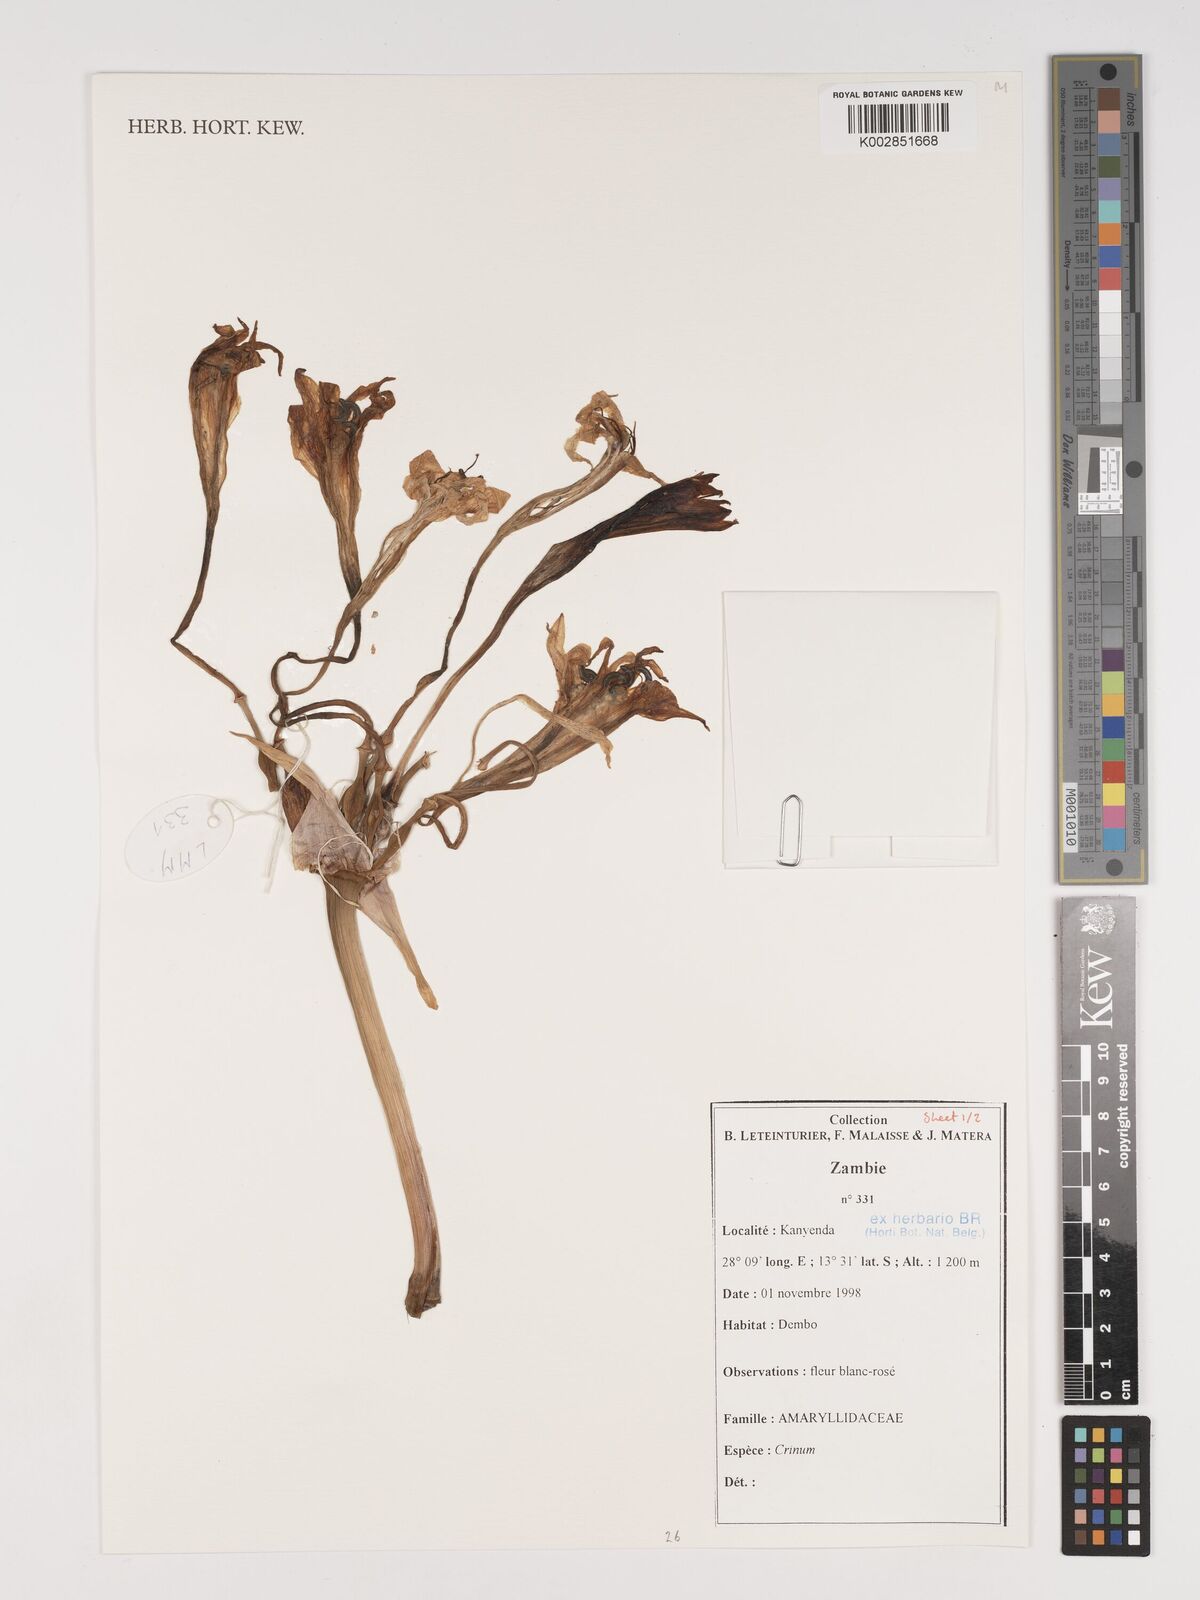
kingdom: Plantae
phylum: Tracheophyta
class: Liliopsida
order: Asparagales
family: Amaryllidaceae
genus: Crinum
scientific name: Crinum
